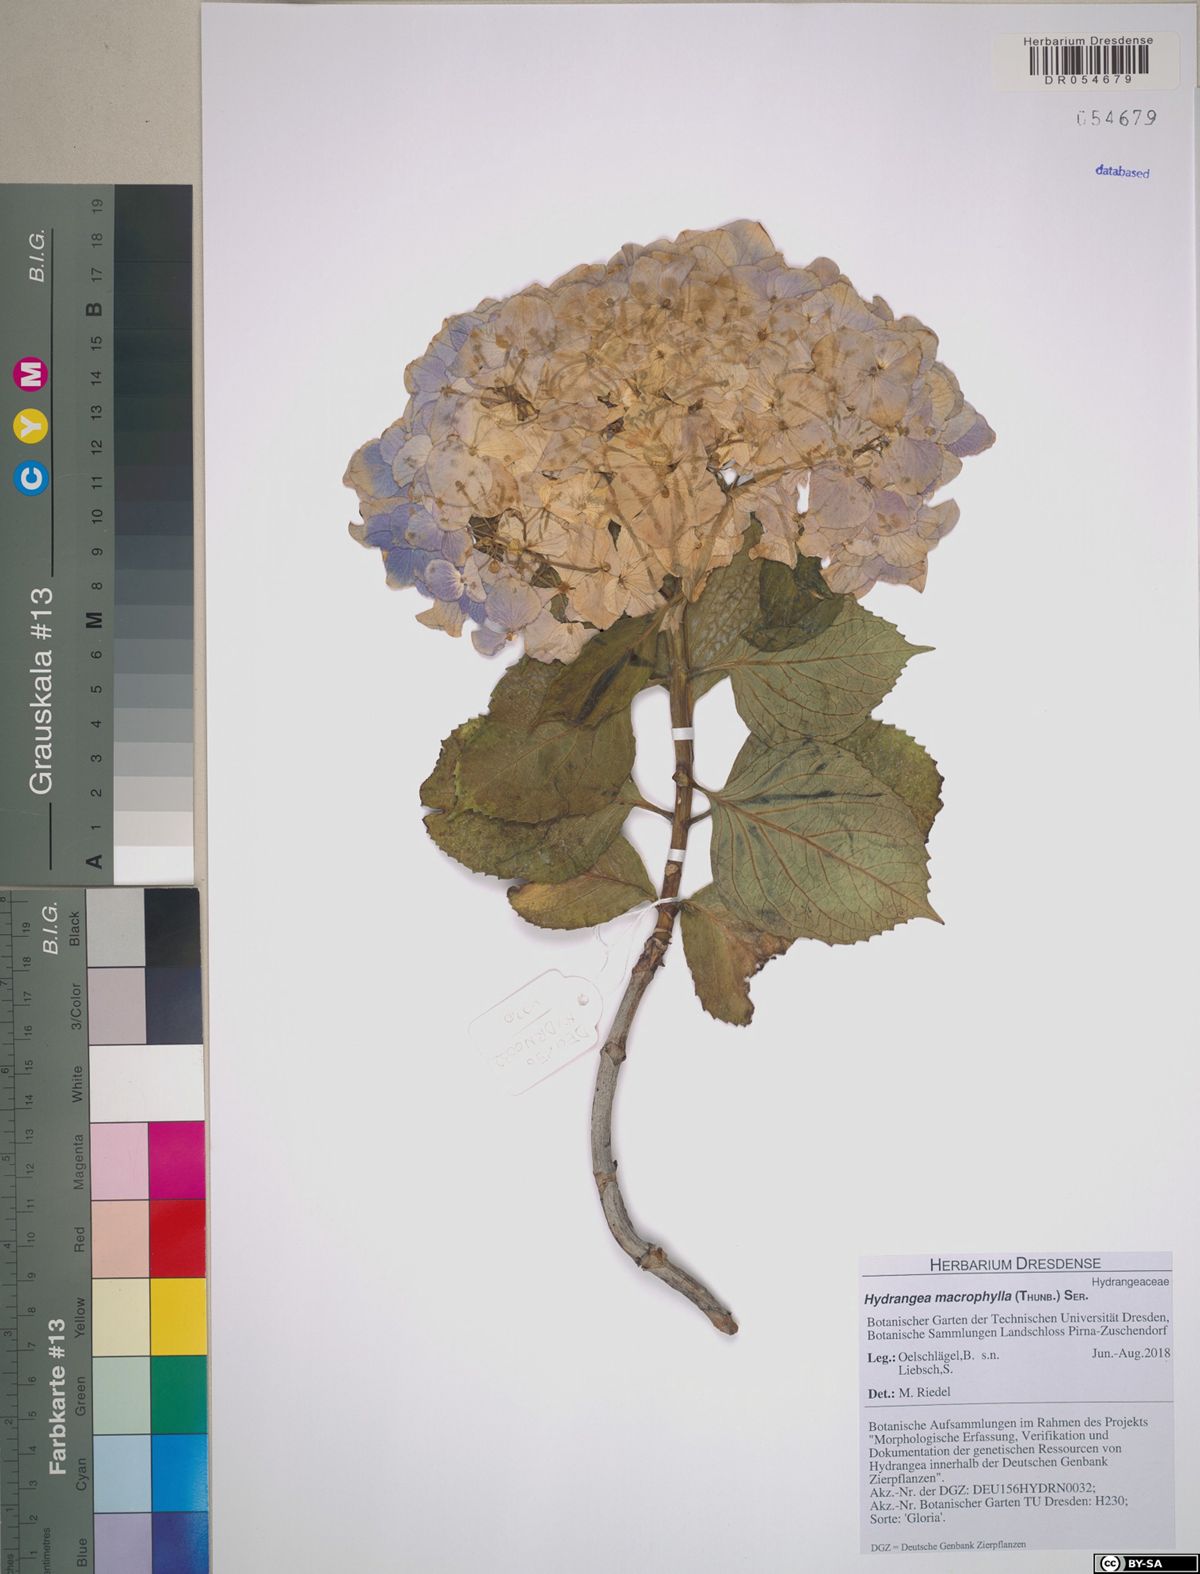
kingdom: Plantae
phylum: Tracheophyta
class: Magnoliopsida
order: Cornales
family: Hydrangeaceae
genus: Hydrangea
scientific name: Hydrangea macrophylla
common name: Hydrangea
